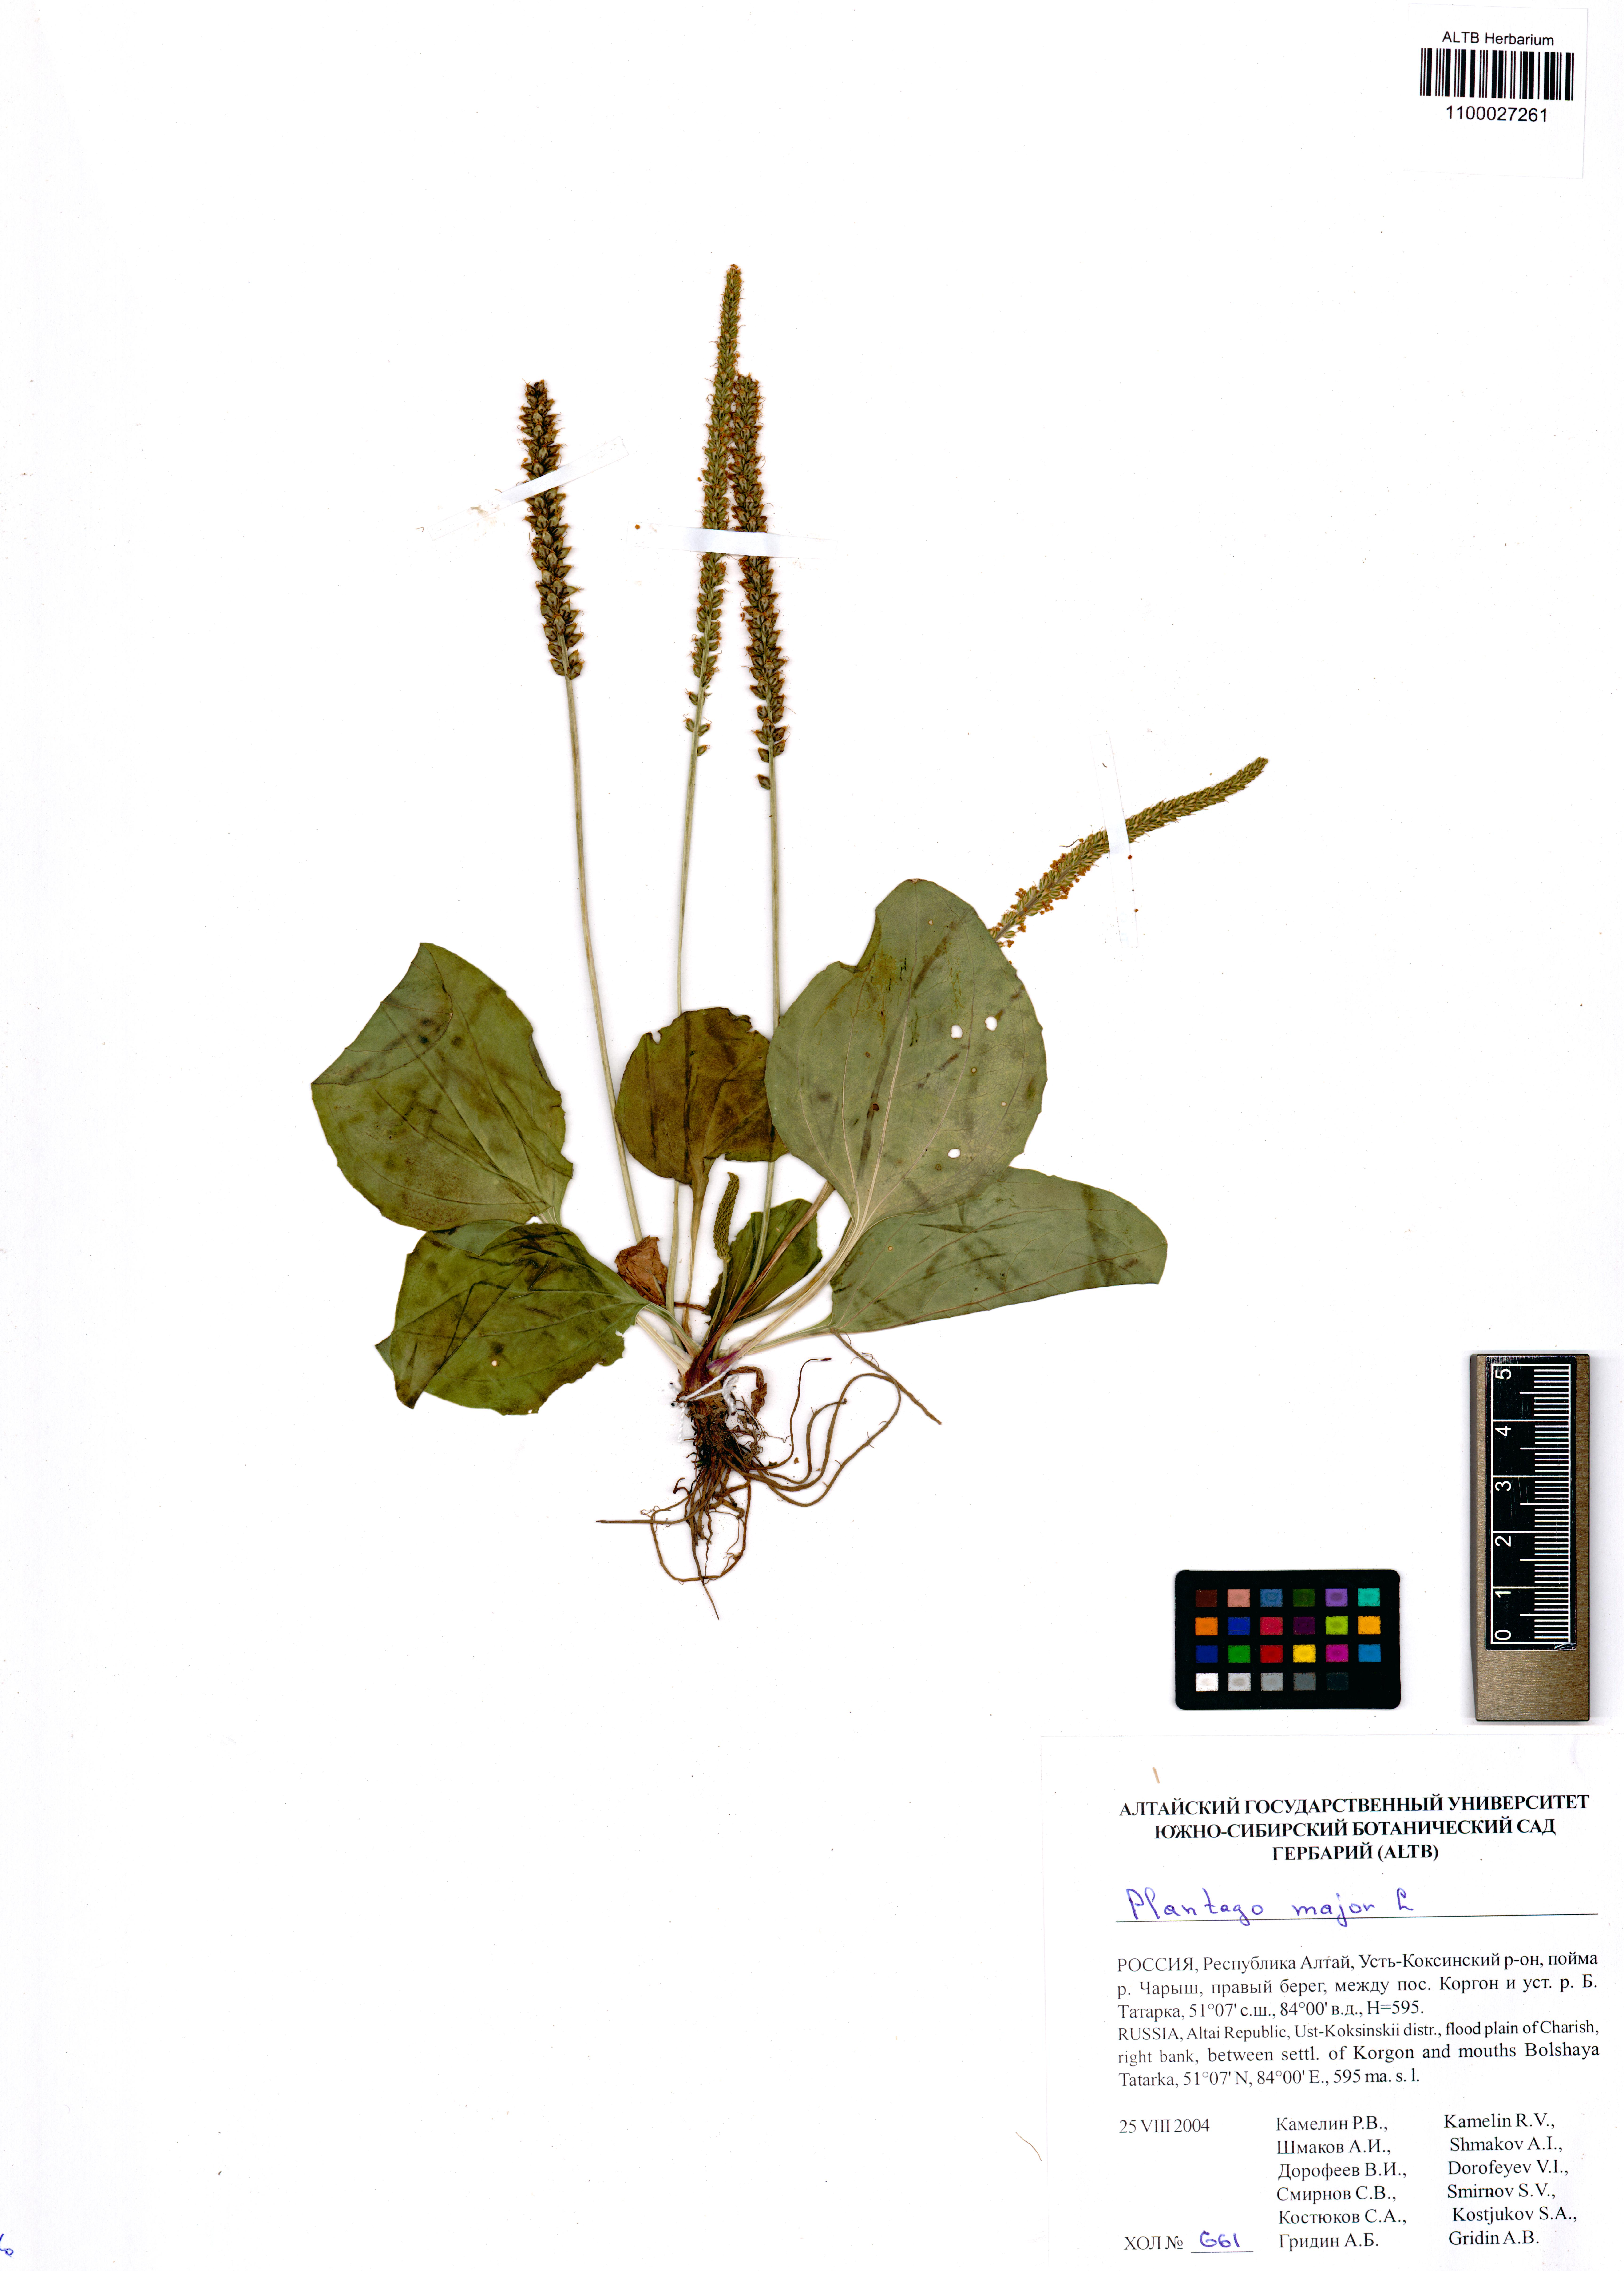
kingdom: Plantae
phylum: Tracheophyta
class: Magnoliopsida
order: Lamiales
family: Plantaginaceae
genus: Plantago
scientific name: Plantago major
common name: Common plantain
